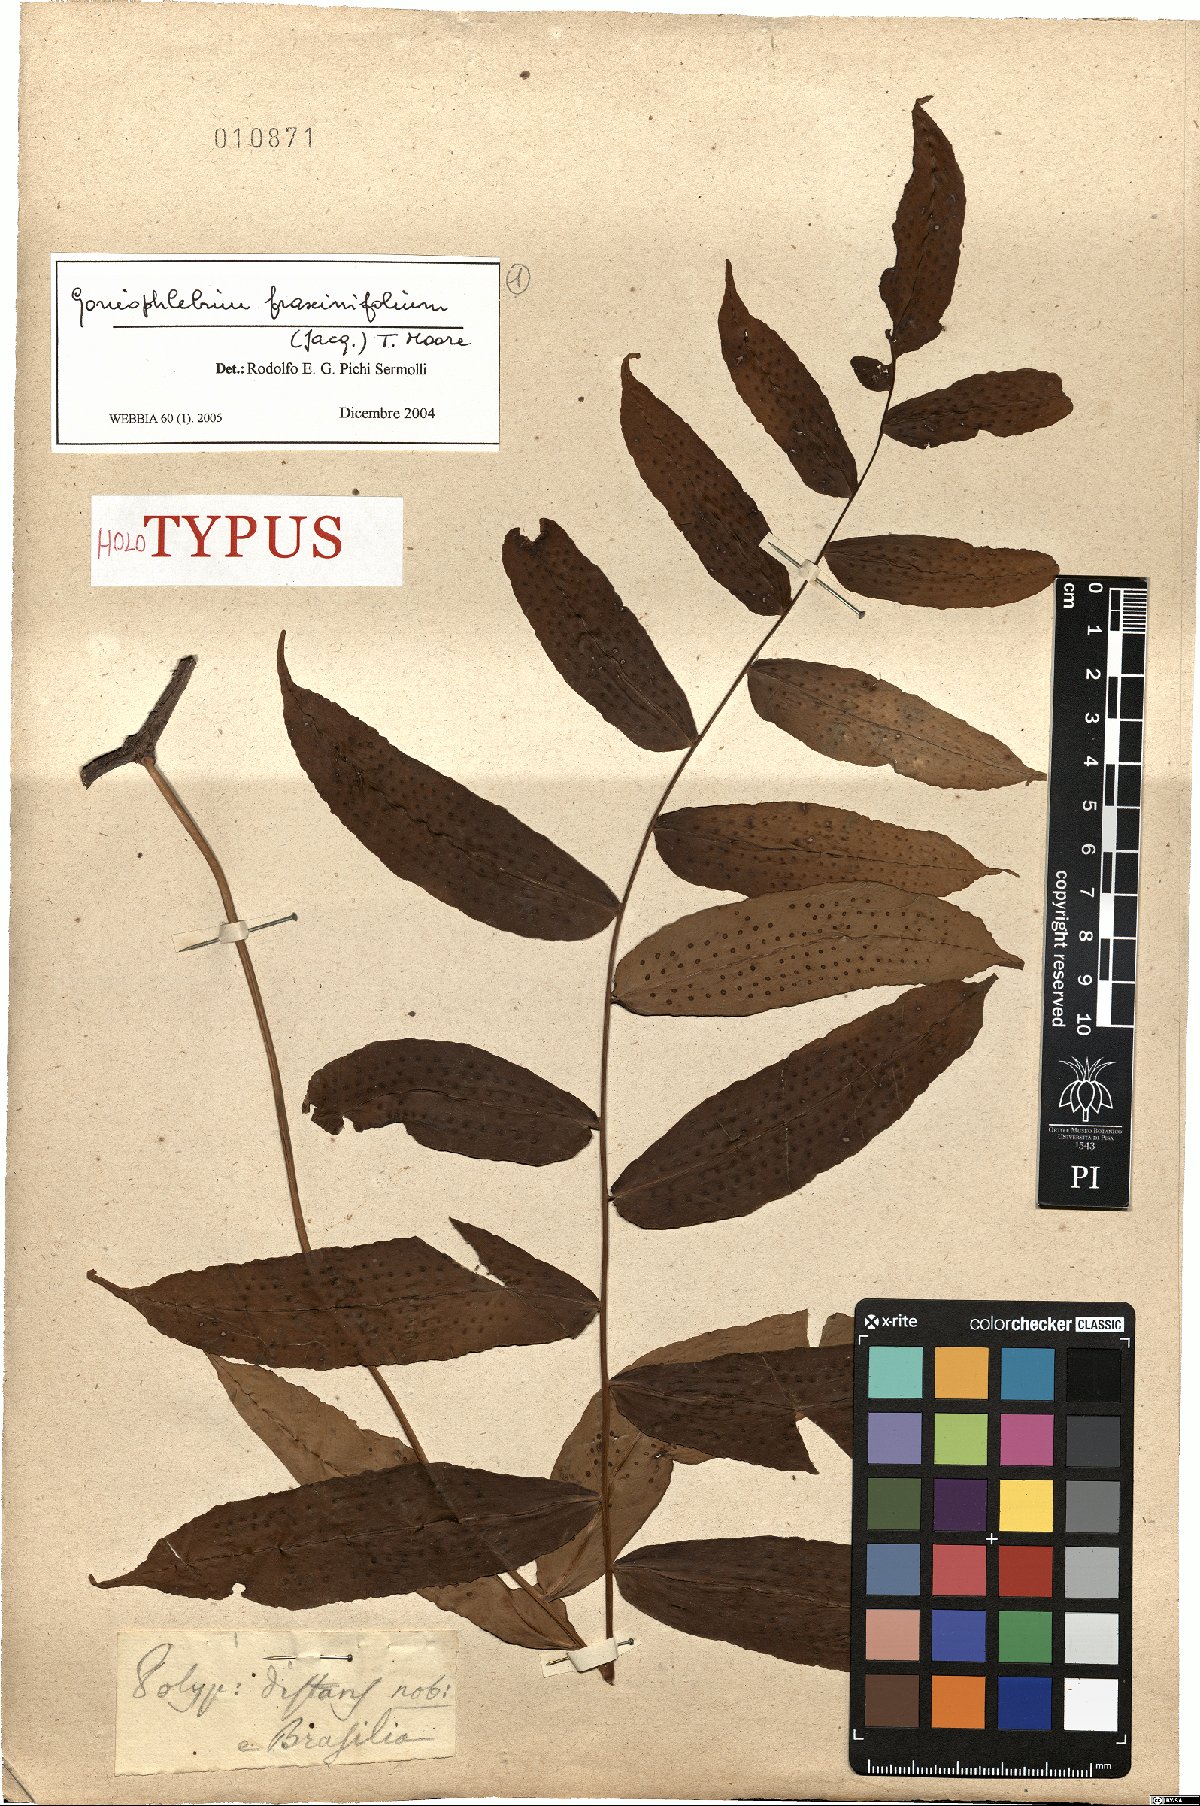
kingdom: Plantae
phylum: Tracheophyta
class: Polypodiopsida
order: Polypodiales
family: Polypodiaceae
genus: Serpocaulon
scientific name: Serpocaulon fraxinifolium
